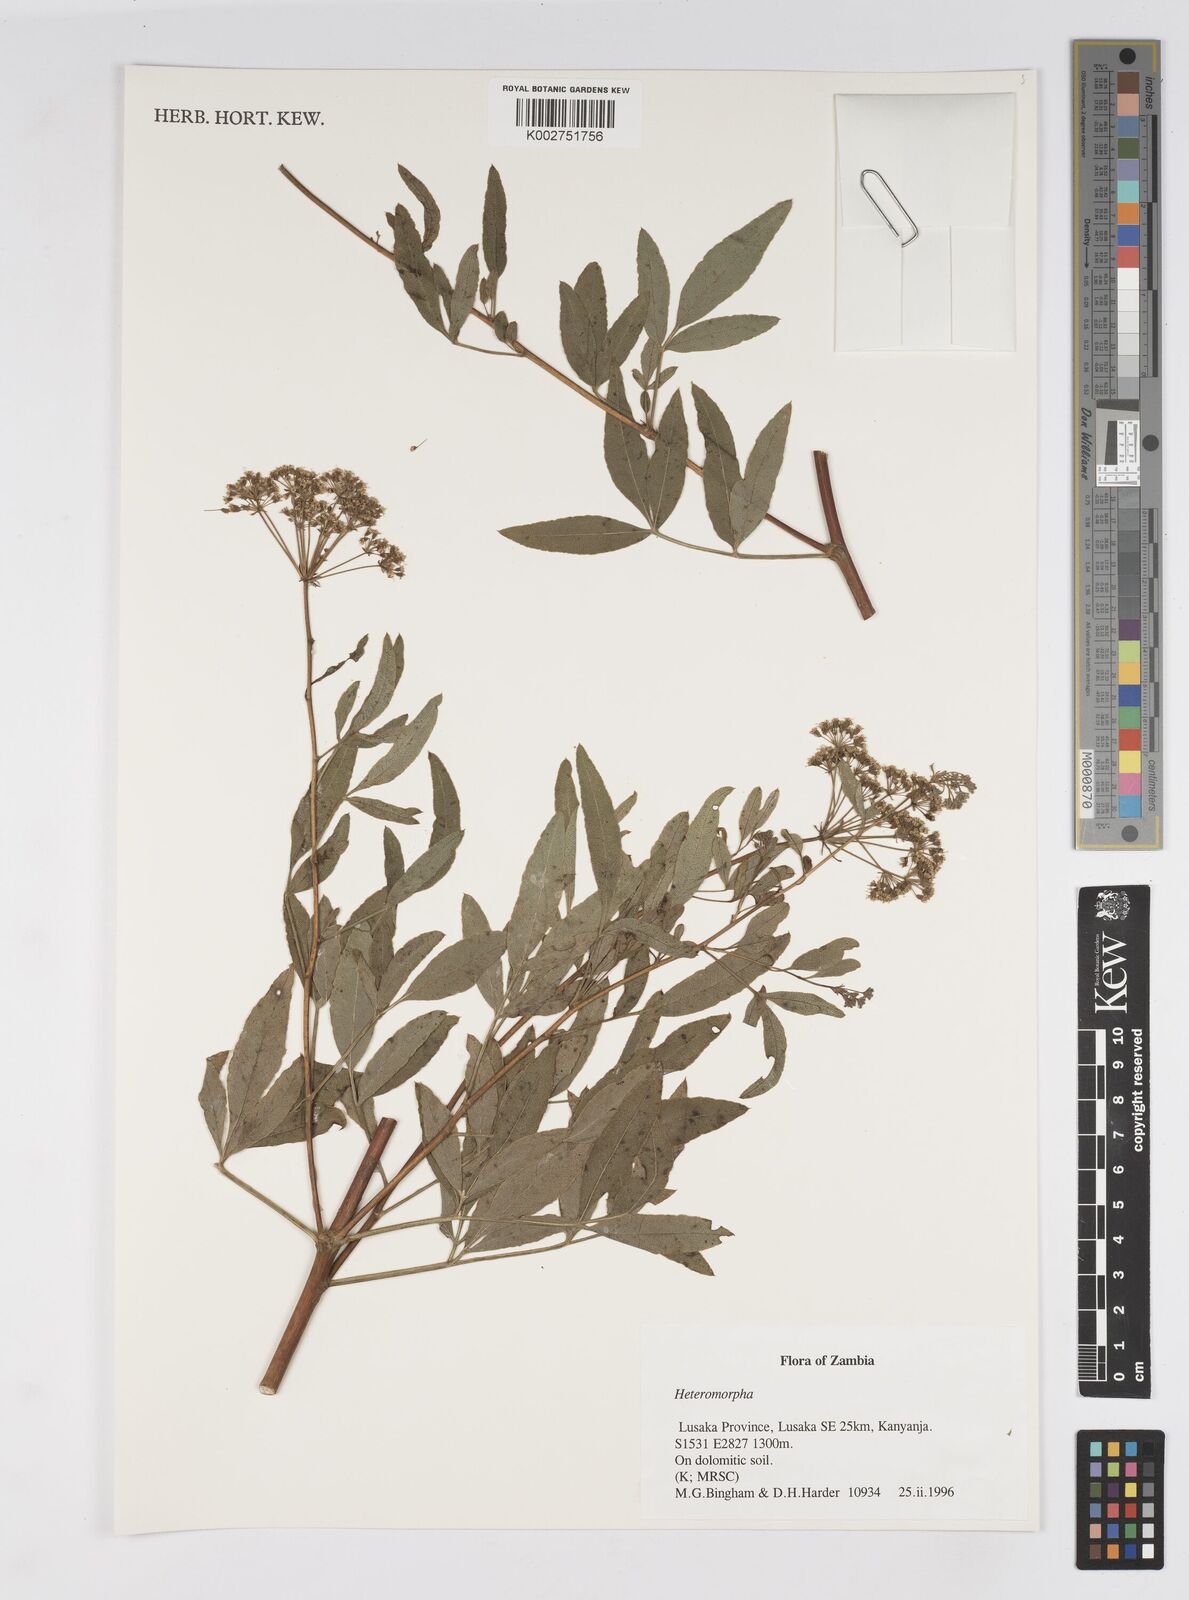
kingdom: Plantae
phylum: Tracheophyta
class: Magnoliopsida
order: Apiales
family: Apiaceae
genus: Heteromorpha
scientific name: Heteromorpha
